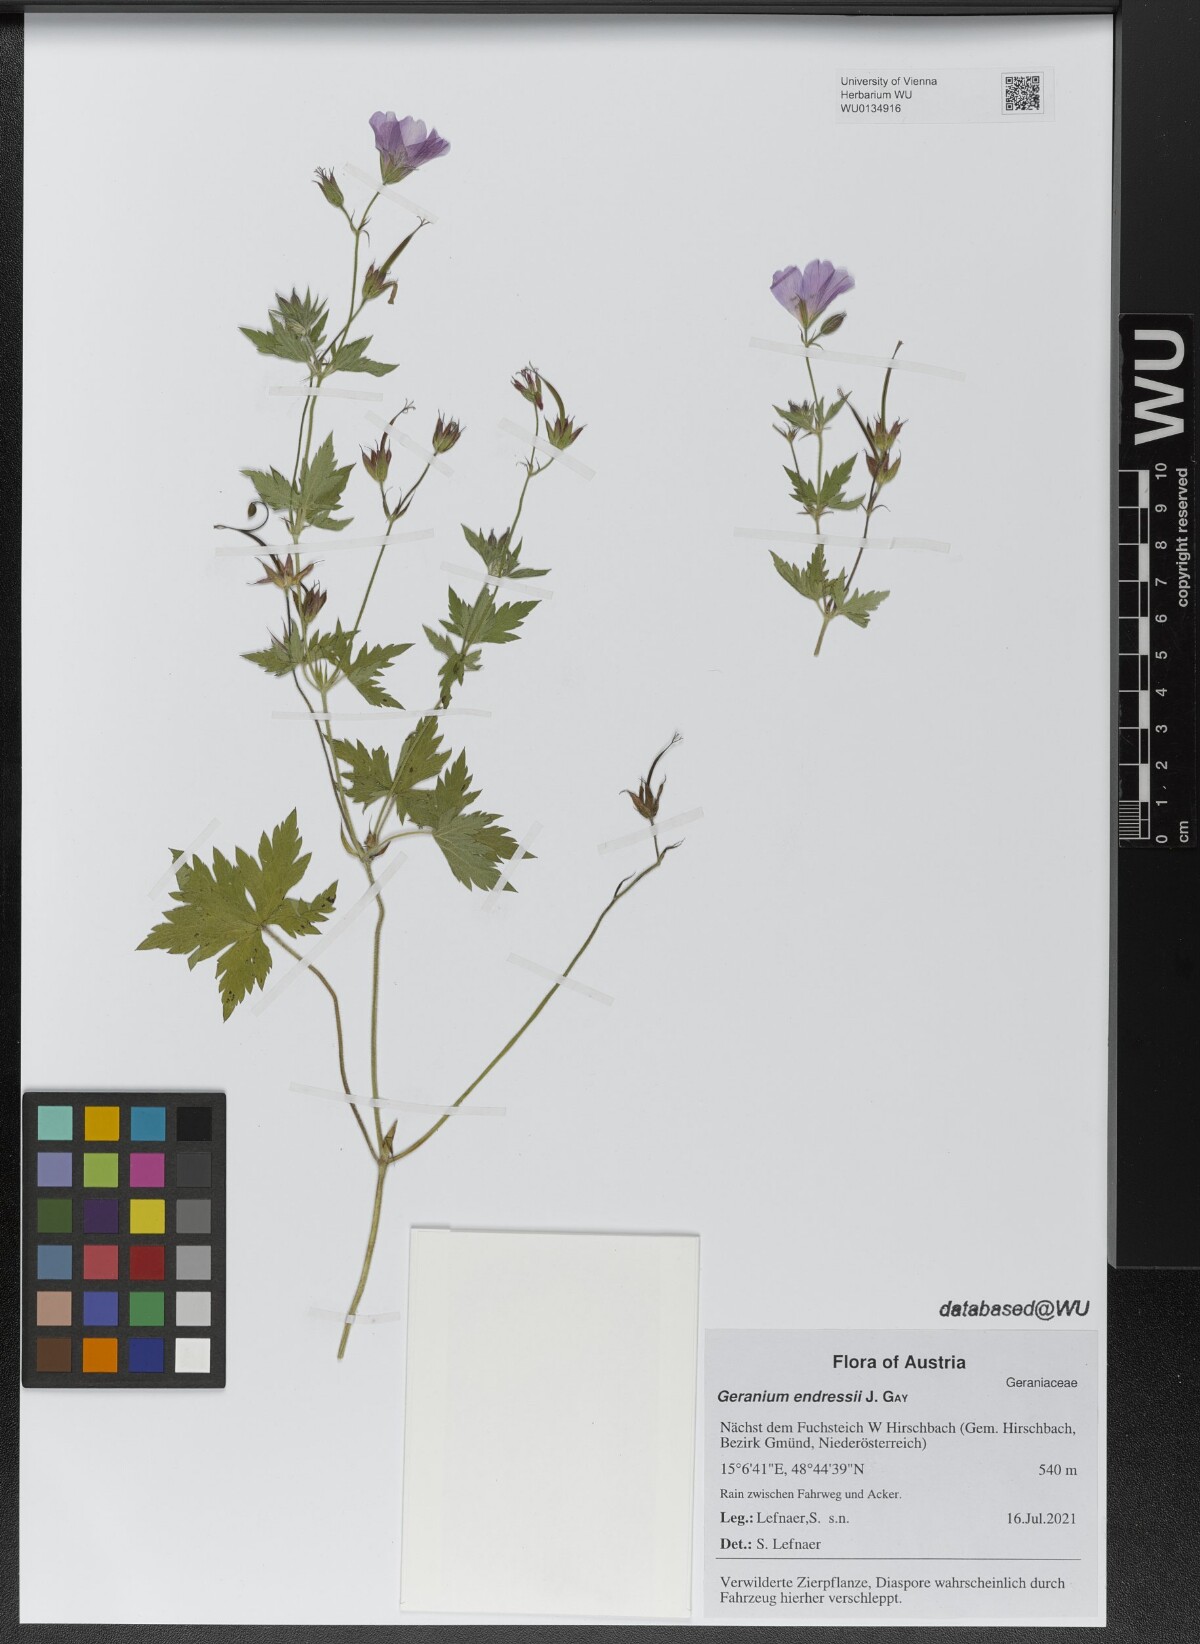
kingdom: Plantae
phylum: Tracheophyta
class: Magnoliopsida
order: Geraniales
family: Geraniaceae
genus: Geranium
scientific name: Geranium endressii
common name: French crane's-bill
